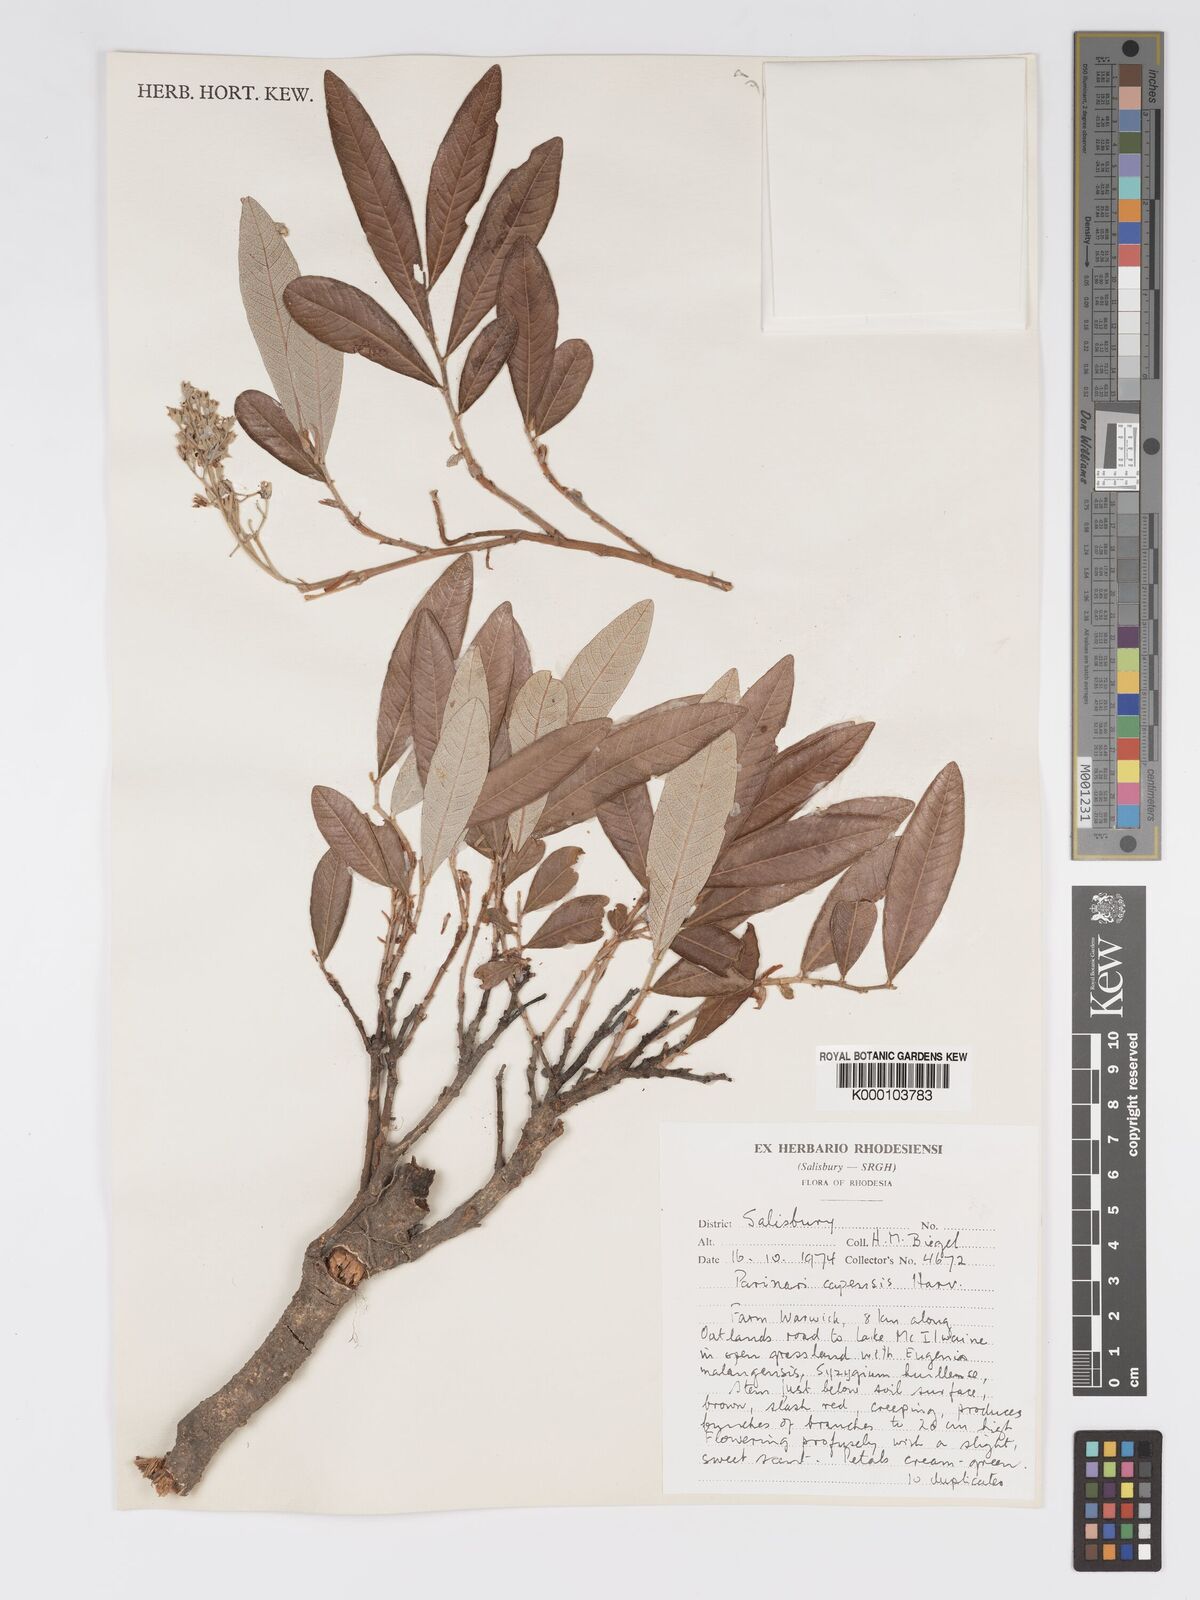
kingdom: Plantae
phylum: Tracheophyta
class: Magnoliopsida
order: Malpighiales
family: Chrysobalanaceae
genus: Parinari
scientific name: Parinari capensis
